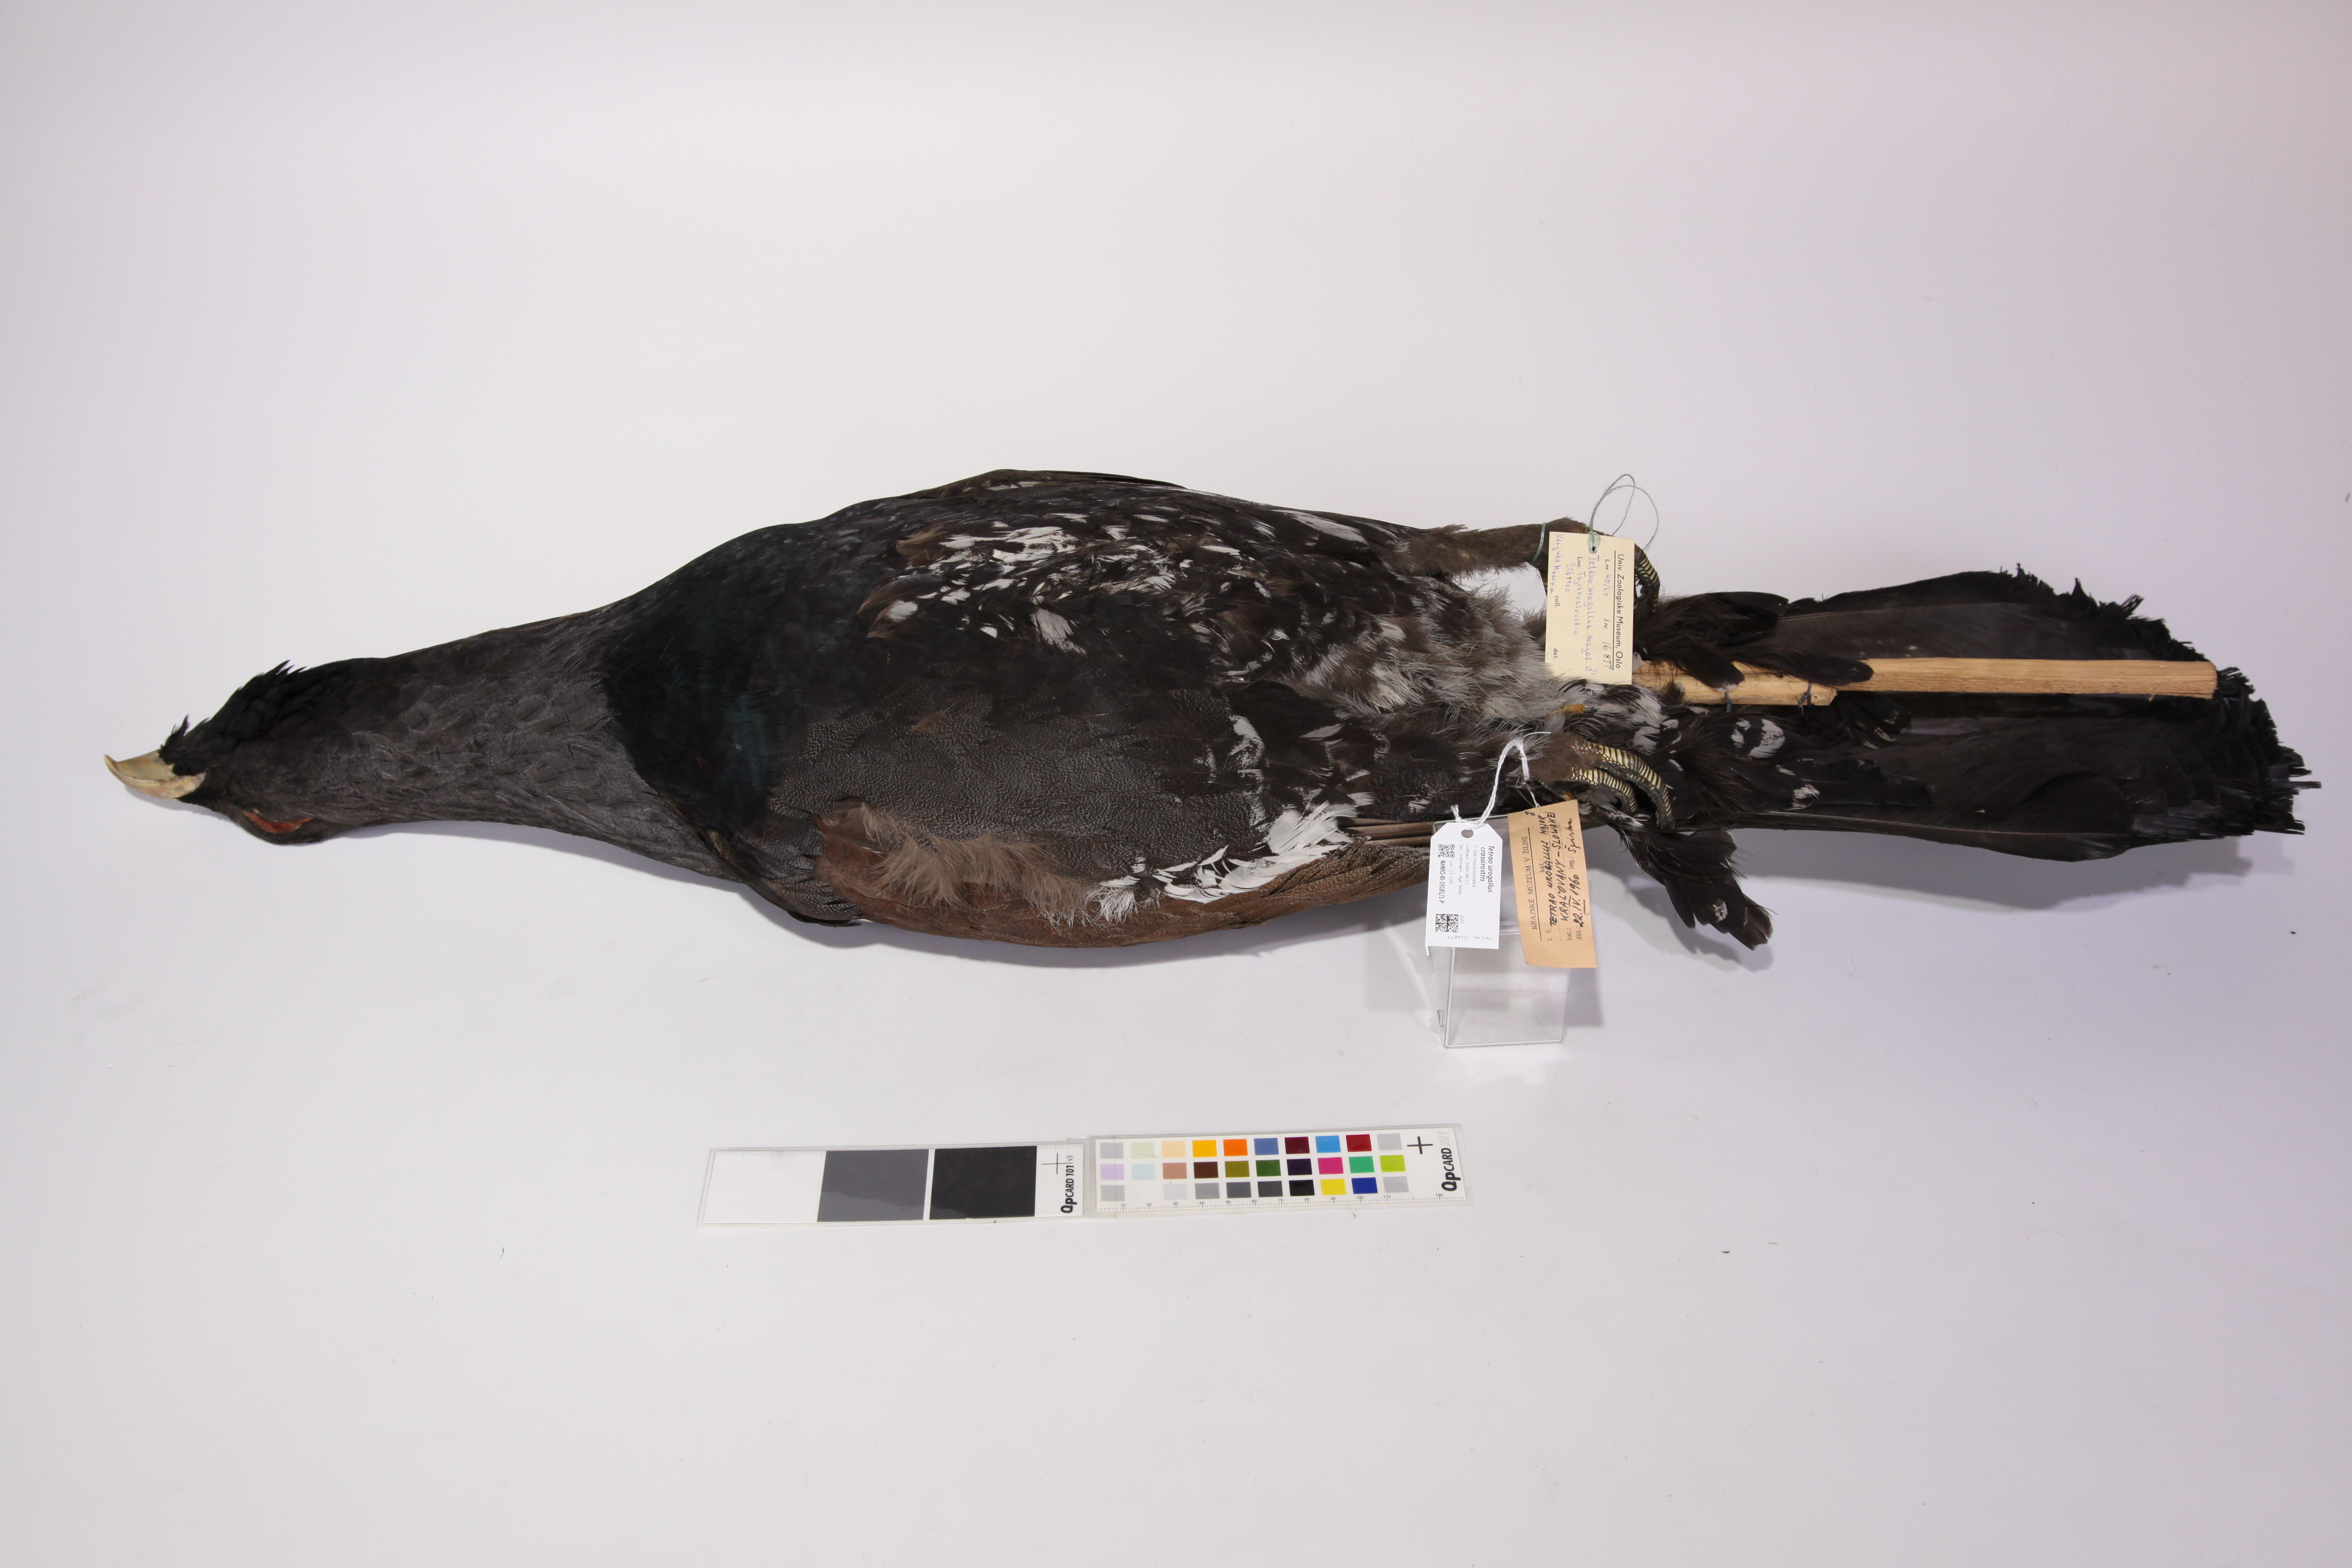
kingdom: Animalia
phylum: Chordata
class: Aves
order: Galliformes
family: Phasianidae
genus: Tetrao
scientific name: Tetrao urogallus
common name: Western capercaillie
